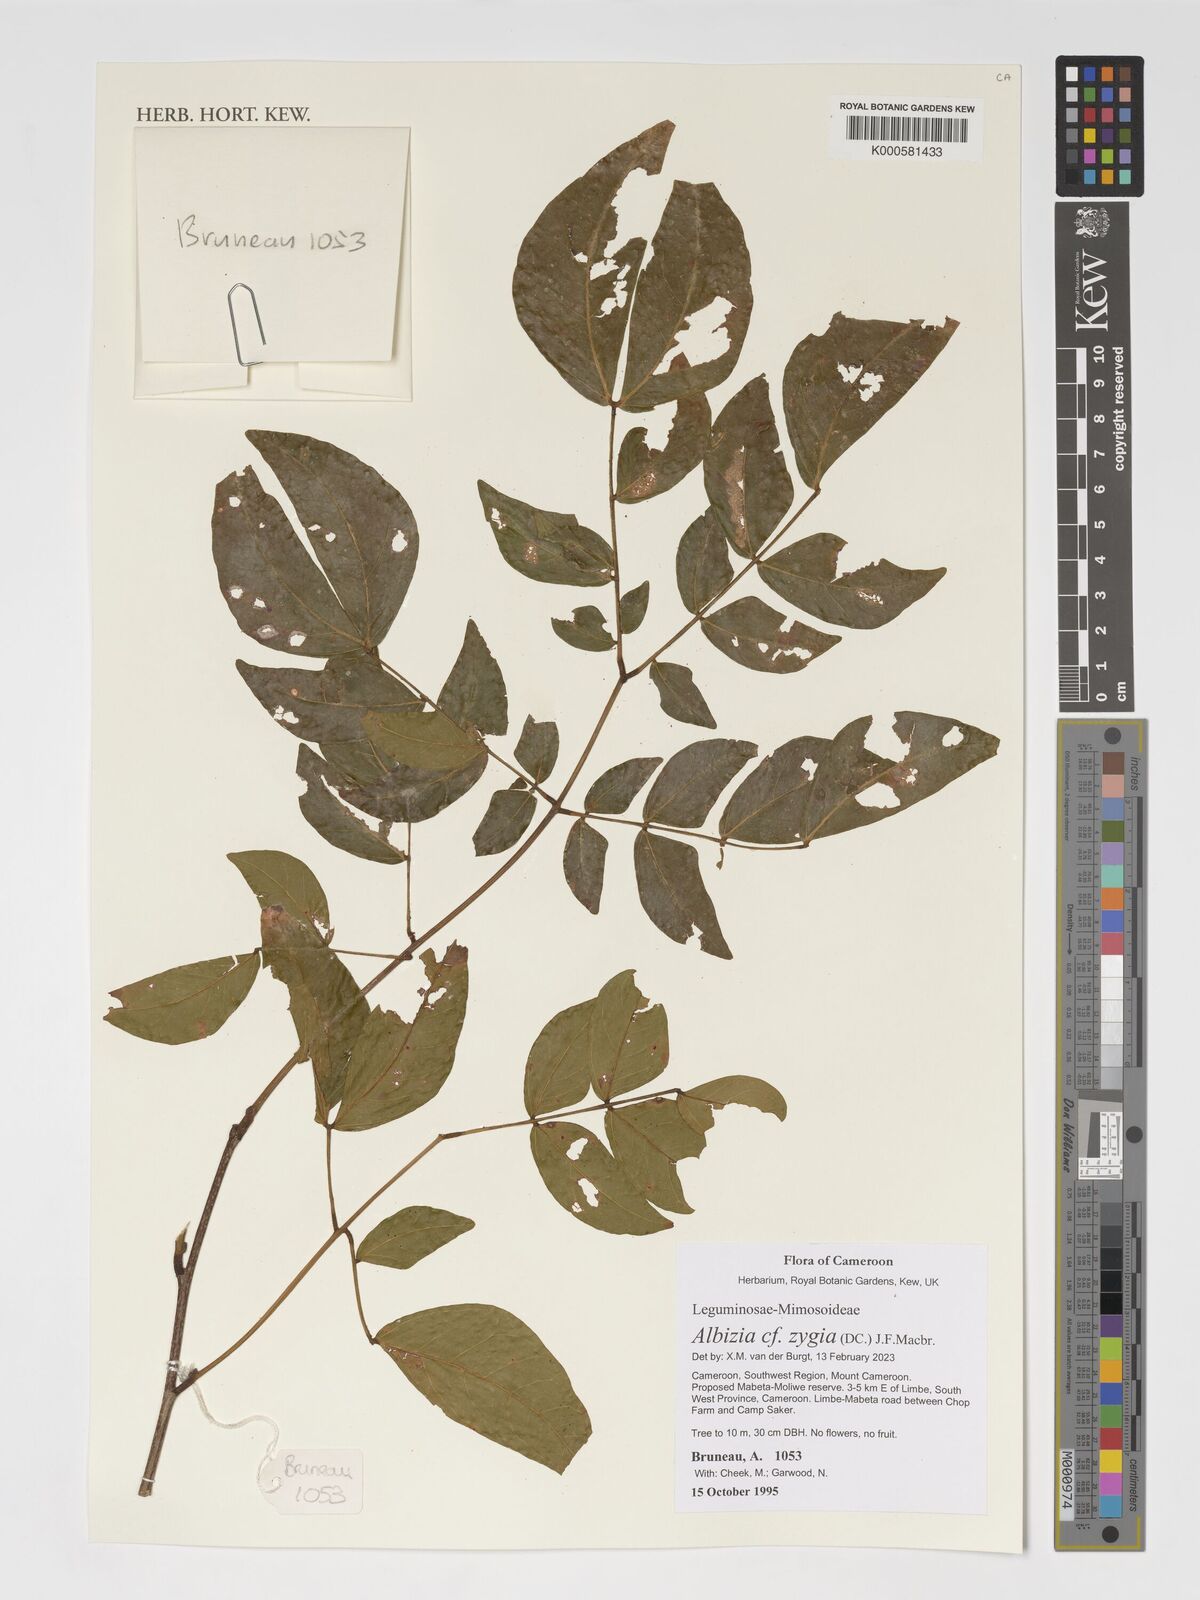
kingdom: Plantae
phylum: Tracheophyta
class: Magnoliopsida
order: Fabales
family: Fabaceae
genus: Albizia
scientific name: Albizia zygia
